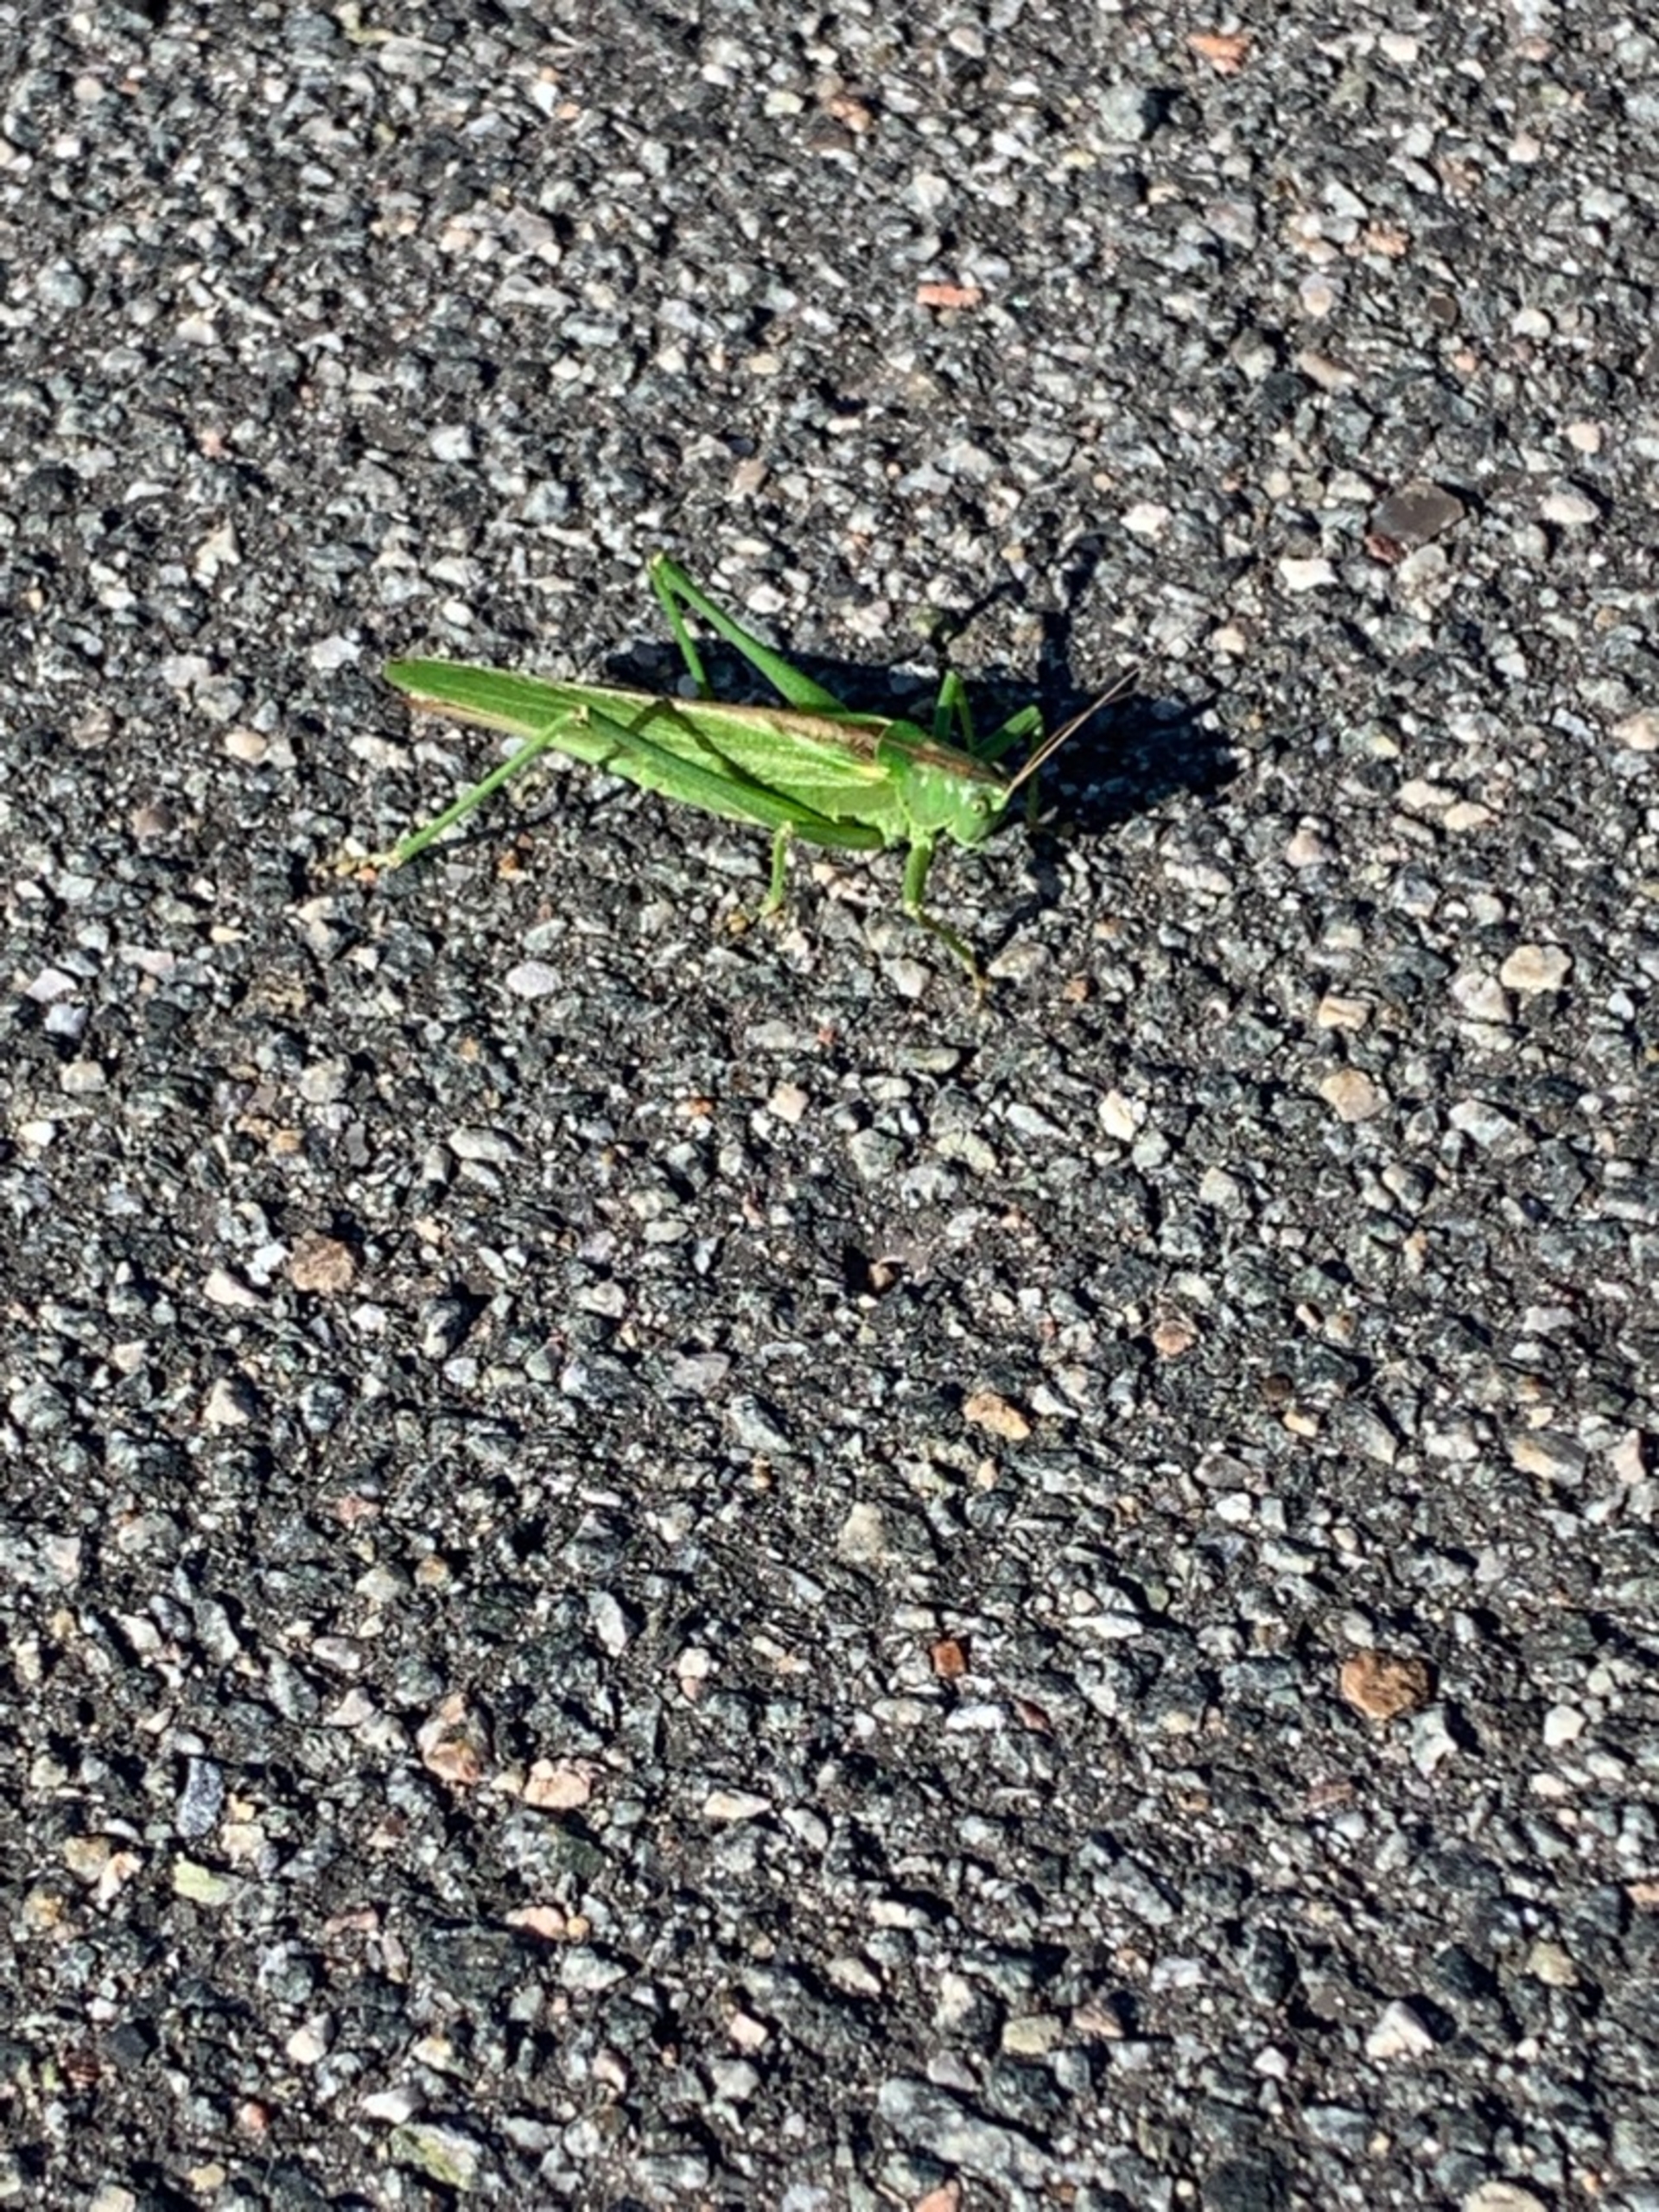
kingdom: Animalia
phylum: Arthropoda
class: Insecta
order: Orthoptera
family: Tettigoniidae
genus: Tettigonia
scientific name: Tettigonia viridissima
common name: Stor grøn løvgræshoppe
